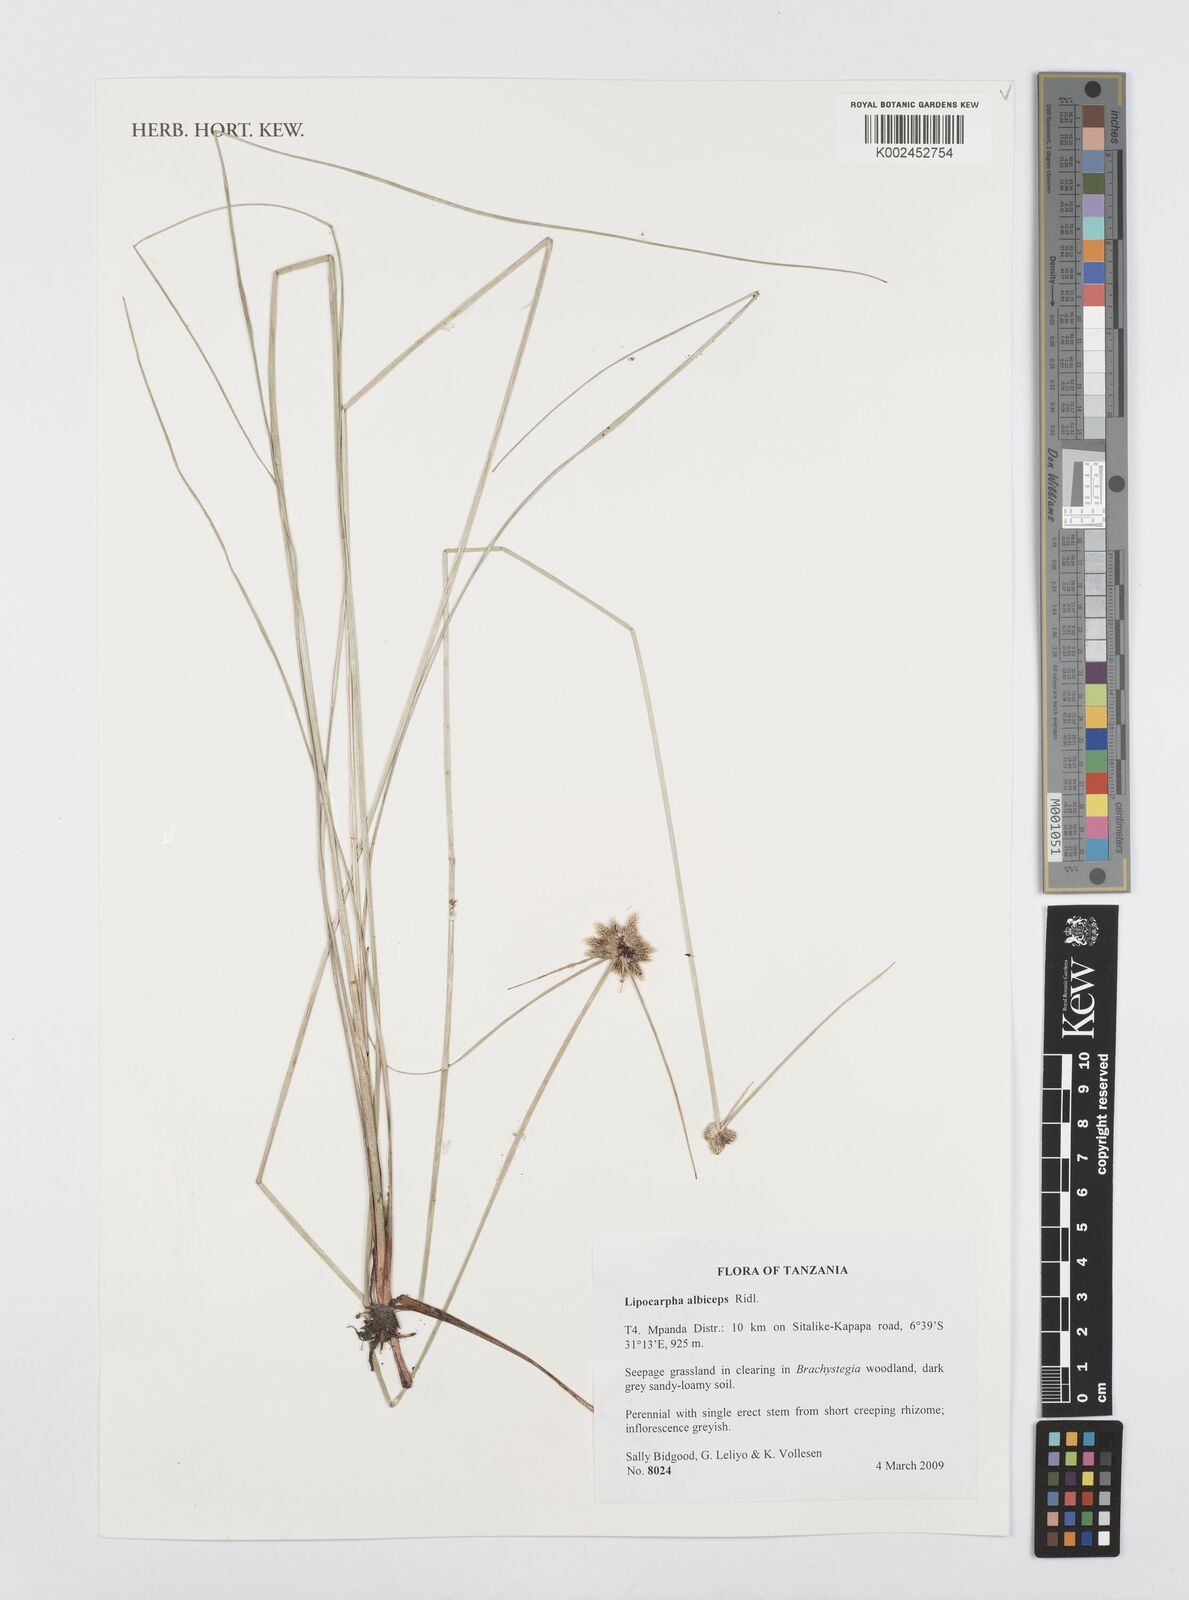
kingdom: Plantae
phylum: Tracheophyta
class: Liliopsida
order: Poales
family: Cyperaceae
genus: Cyperus
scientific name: Cyperus albiceps
